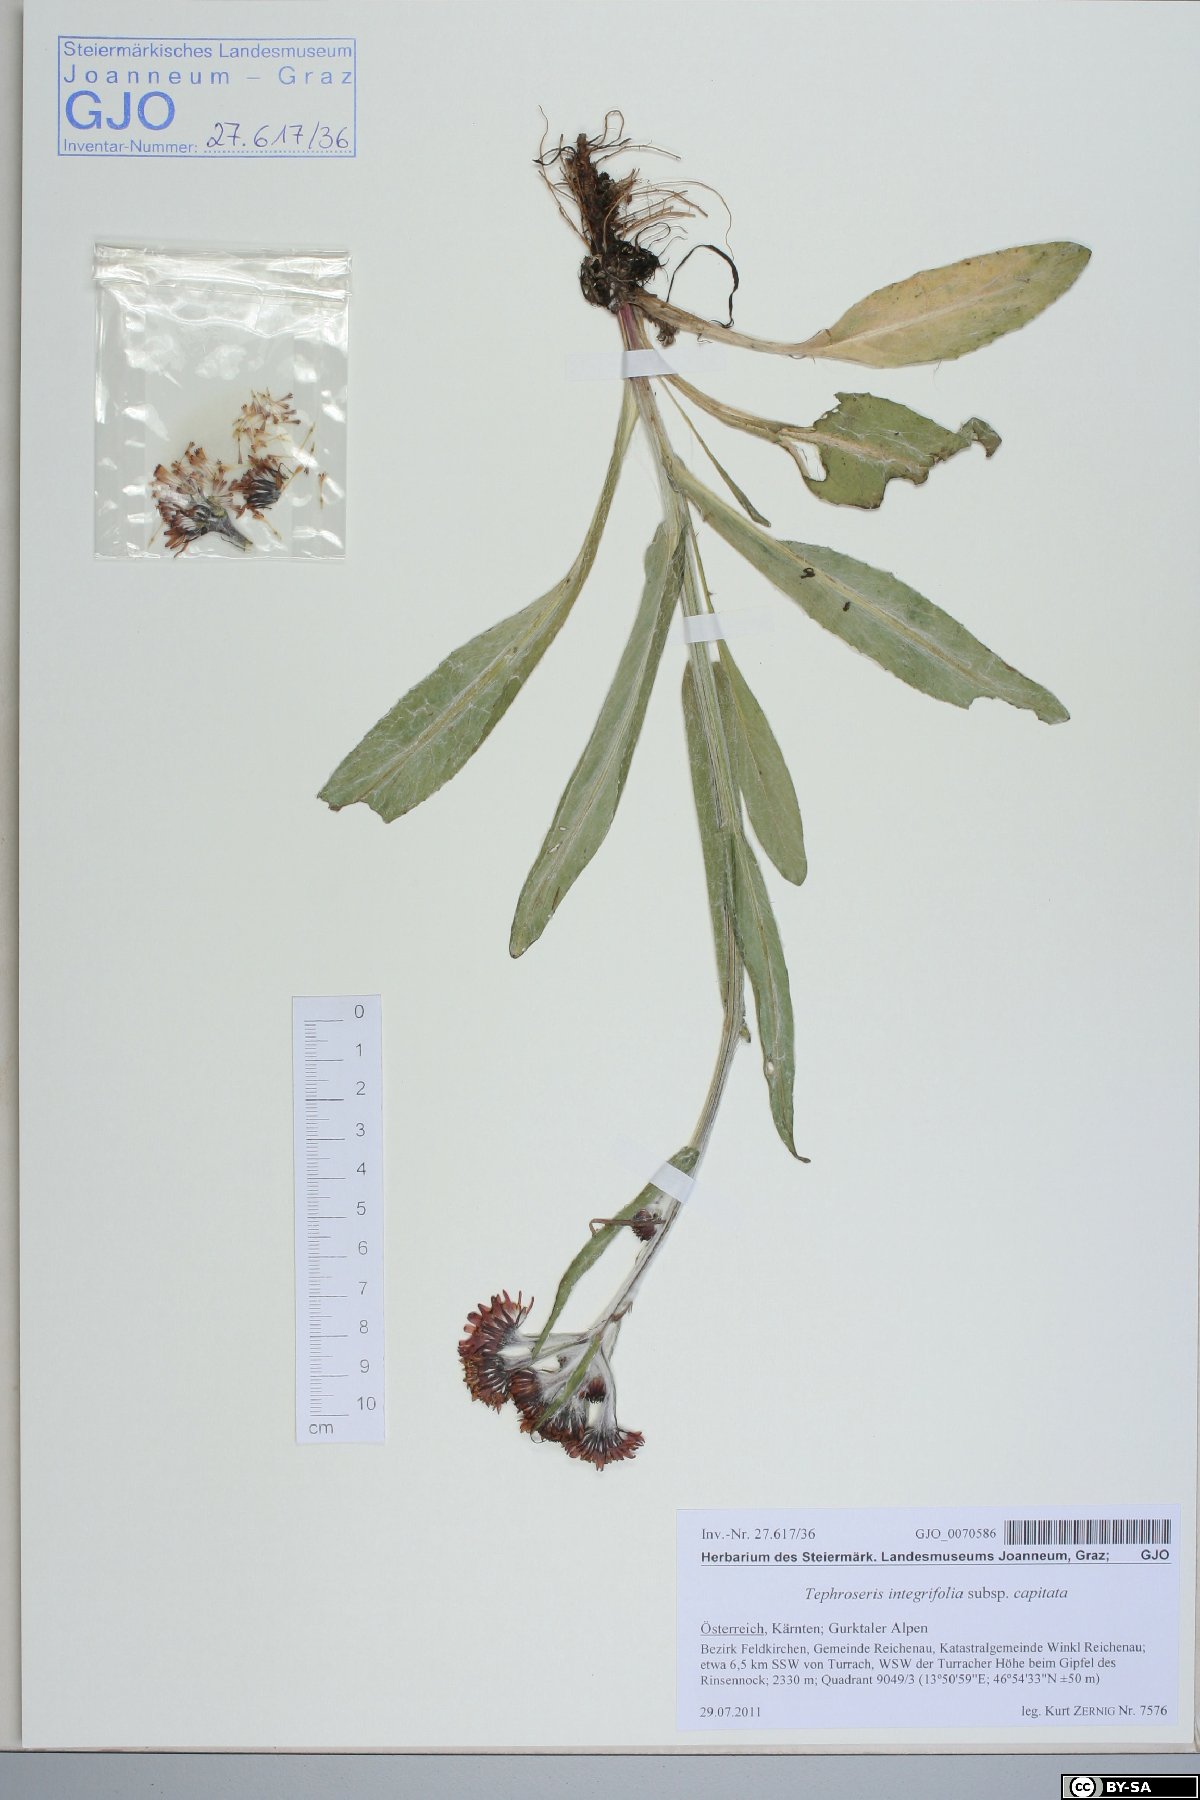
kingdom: Plantae
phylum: Tracheophyta
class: Magnoliopsida
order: Asterales
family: Asteraceae
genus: Tephroseris
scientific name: Tephroseris integrifolia
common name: Field fleawort
